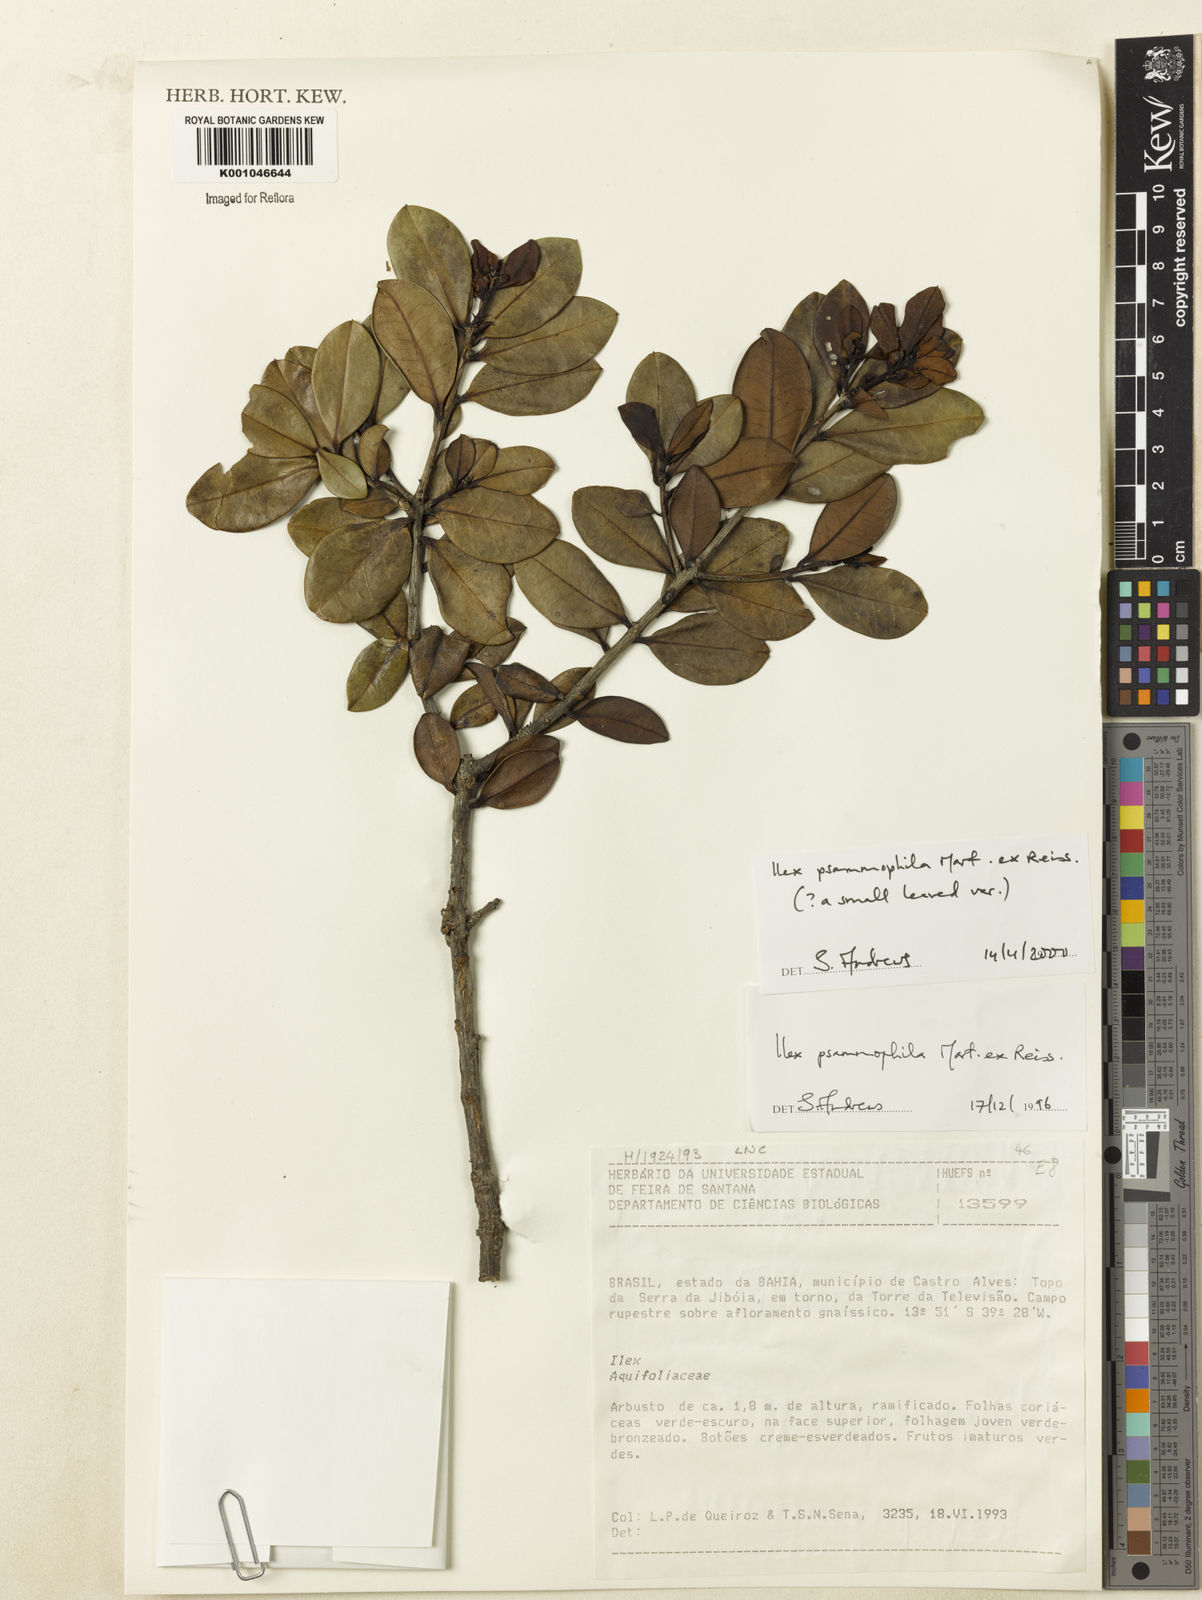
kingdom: Plantae
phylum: Tracheophyta
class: Magnoliopsida
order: Aquifoliales
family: Aquifoliaceae
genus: Ilex
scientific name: Ilex psammophila
